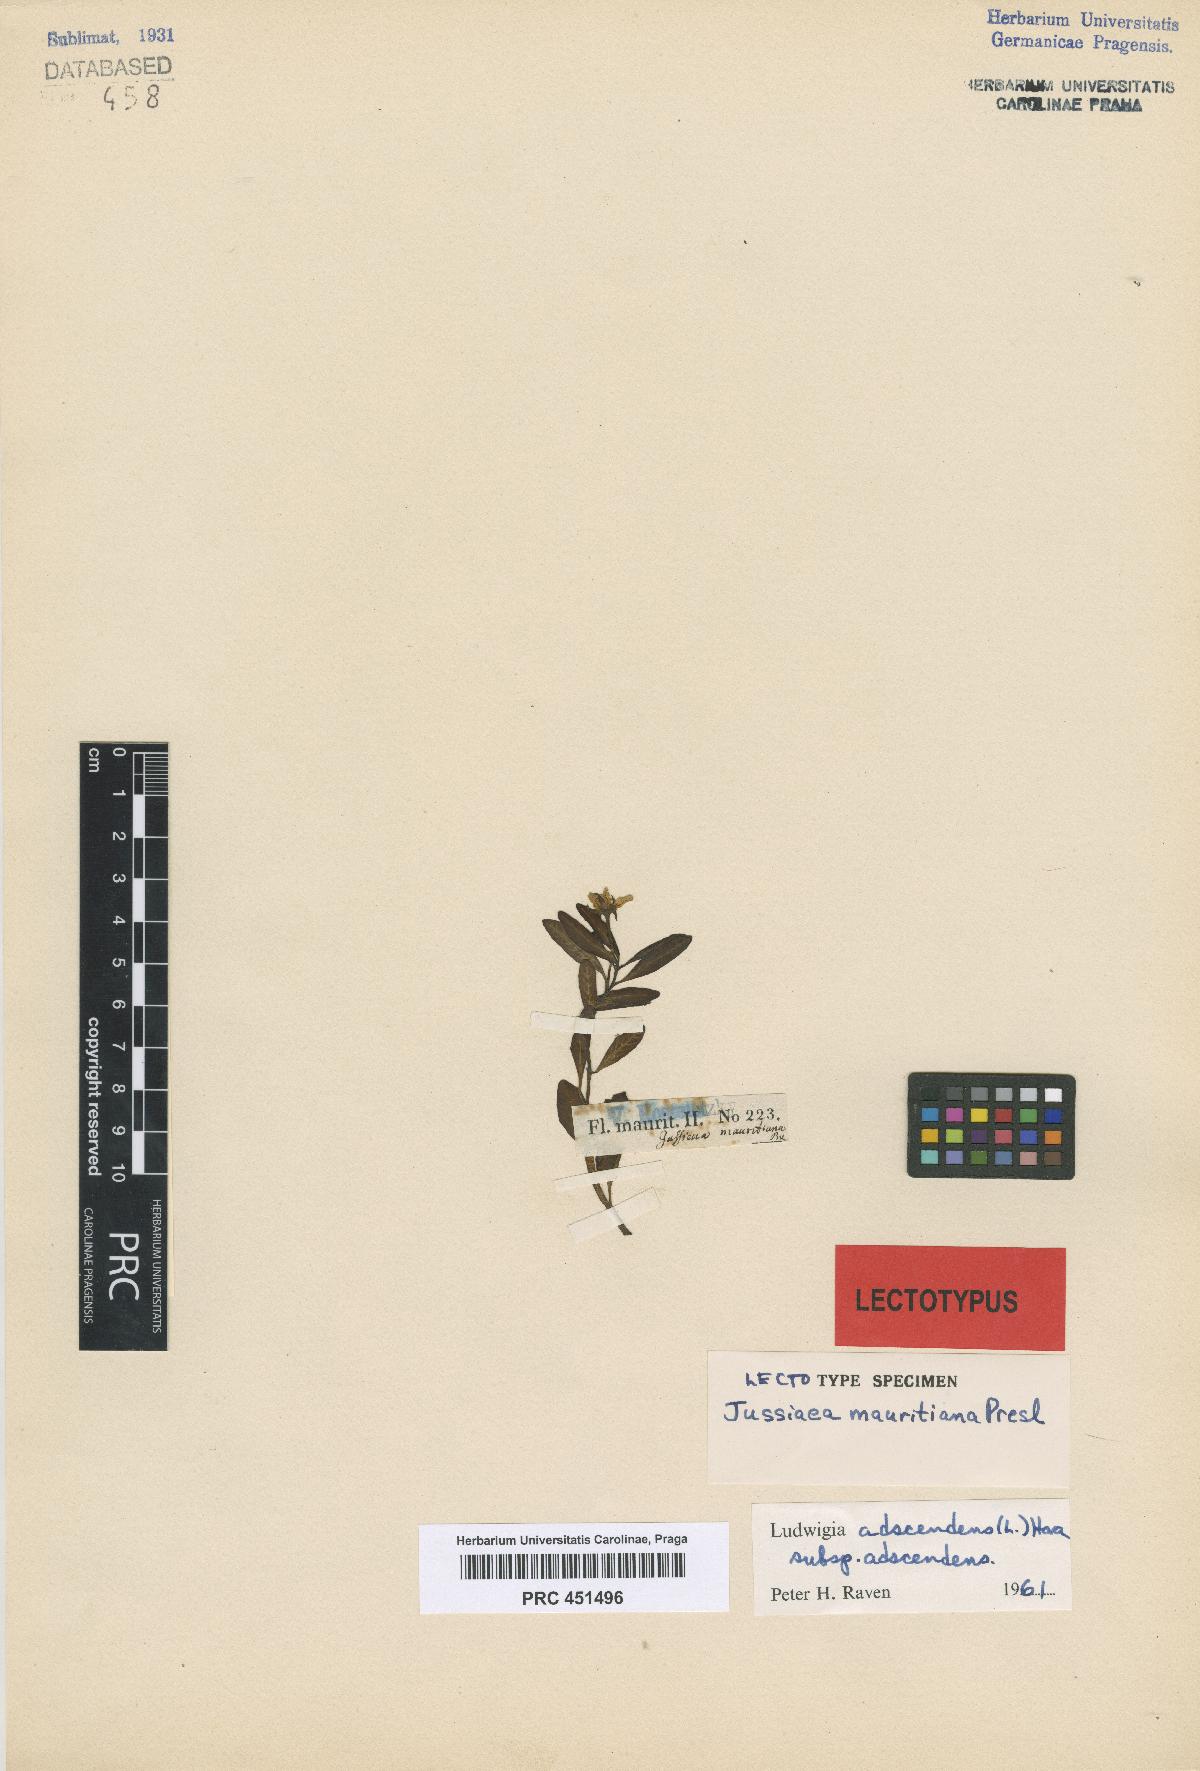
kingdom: Plantae
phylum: Tracheophyta
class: Magnoliopsida
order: Myrtales
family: Onagraceae
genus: Ludwigia
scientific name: Ludwigia adscendens
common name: Creeping water primrose
